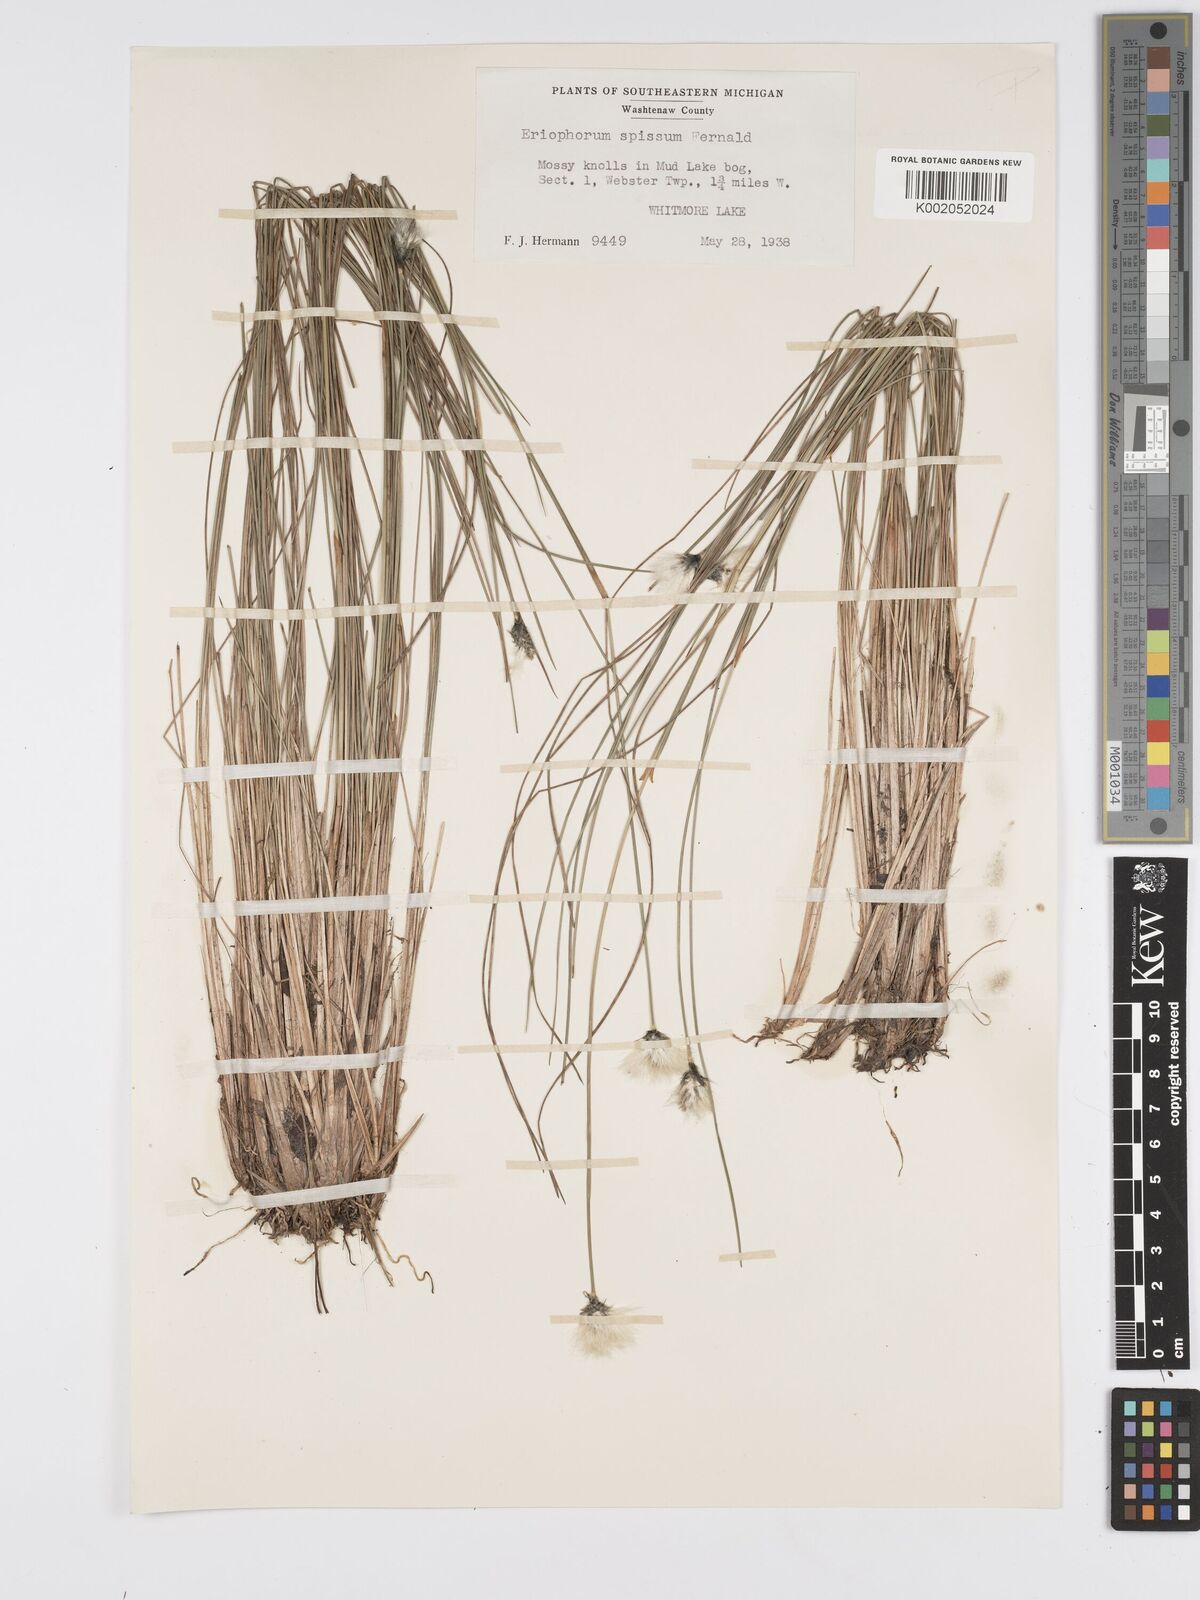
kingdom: Plantae
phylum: Tracheophyta
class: Liliopsida
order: Poales
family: Cyperaceae
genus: Eriophorum
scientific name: Eriophorum vaginatum
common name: Hare's-tail cottongrass
